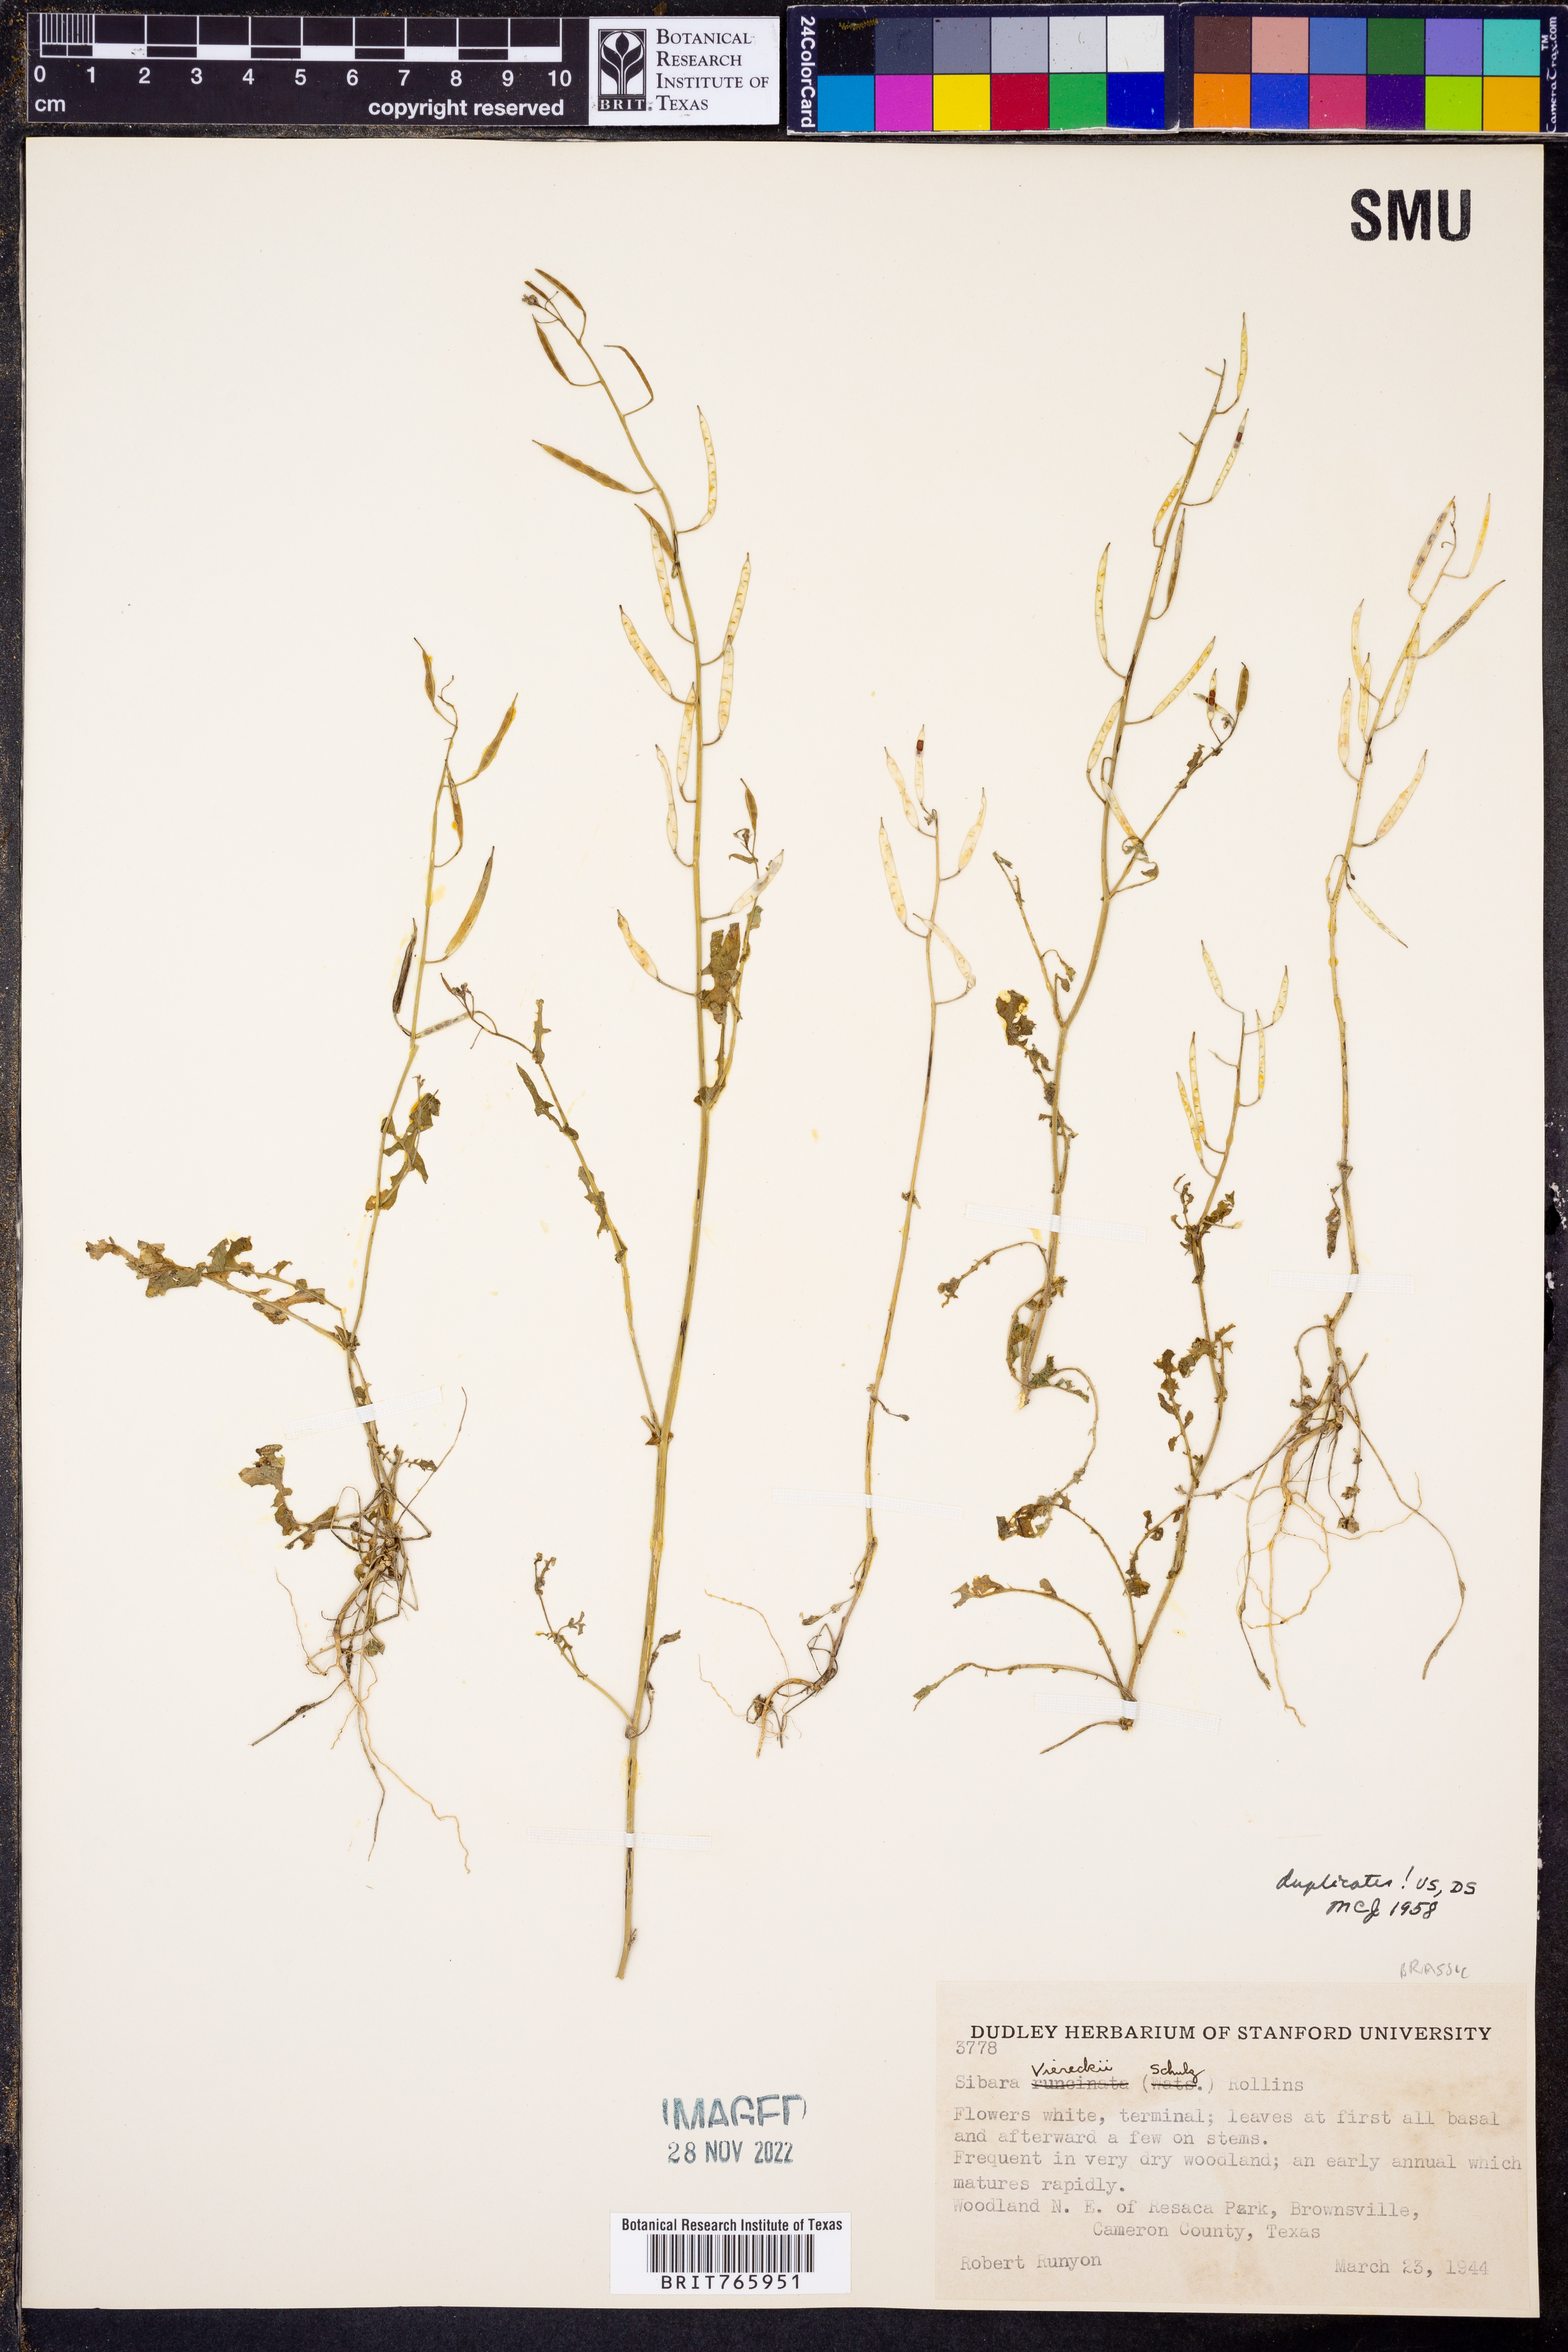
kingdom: Plantae
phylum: Tracheophyta
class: Magnoliopsida
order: Brassicales
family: Brassicaceae
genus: Phravenia
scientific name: Phravenia viereckii
